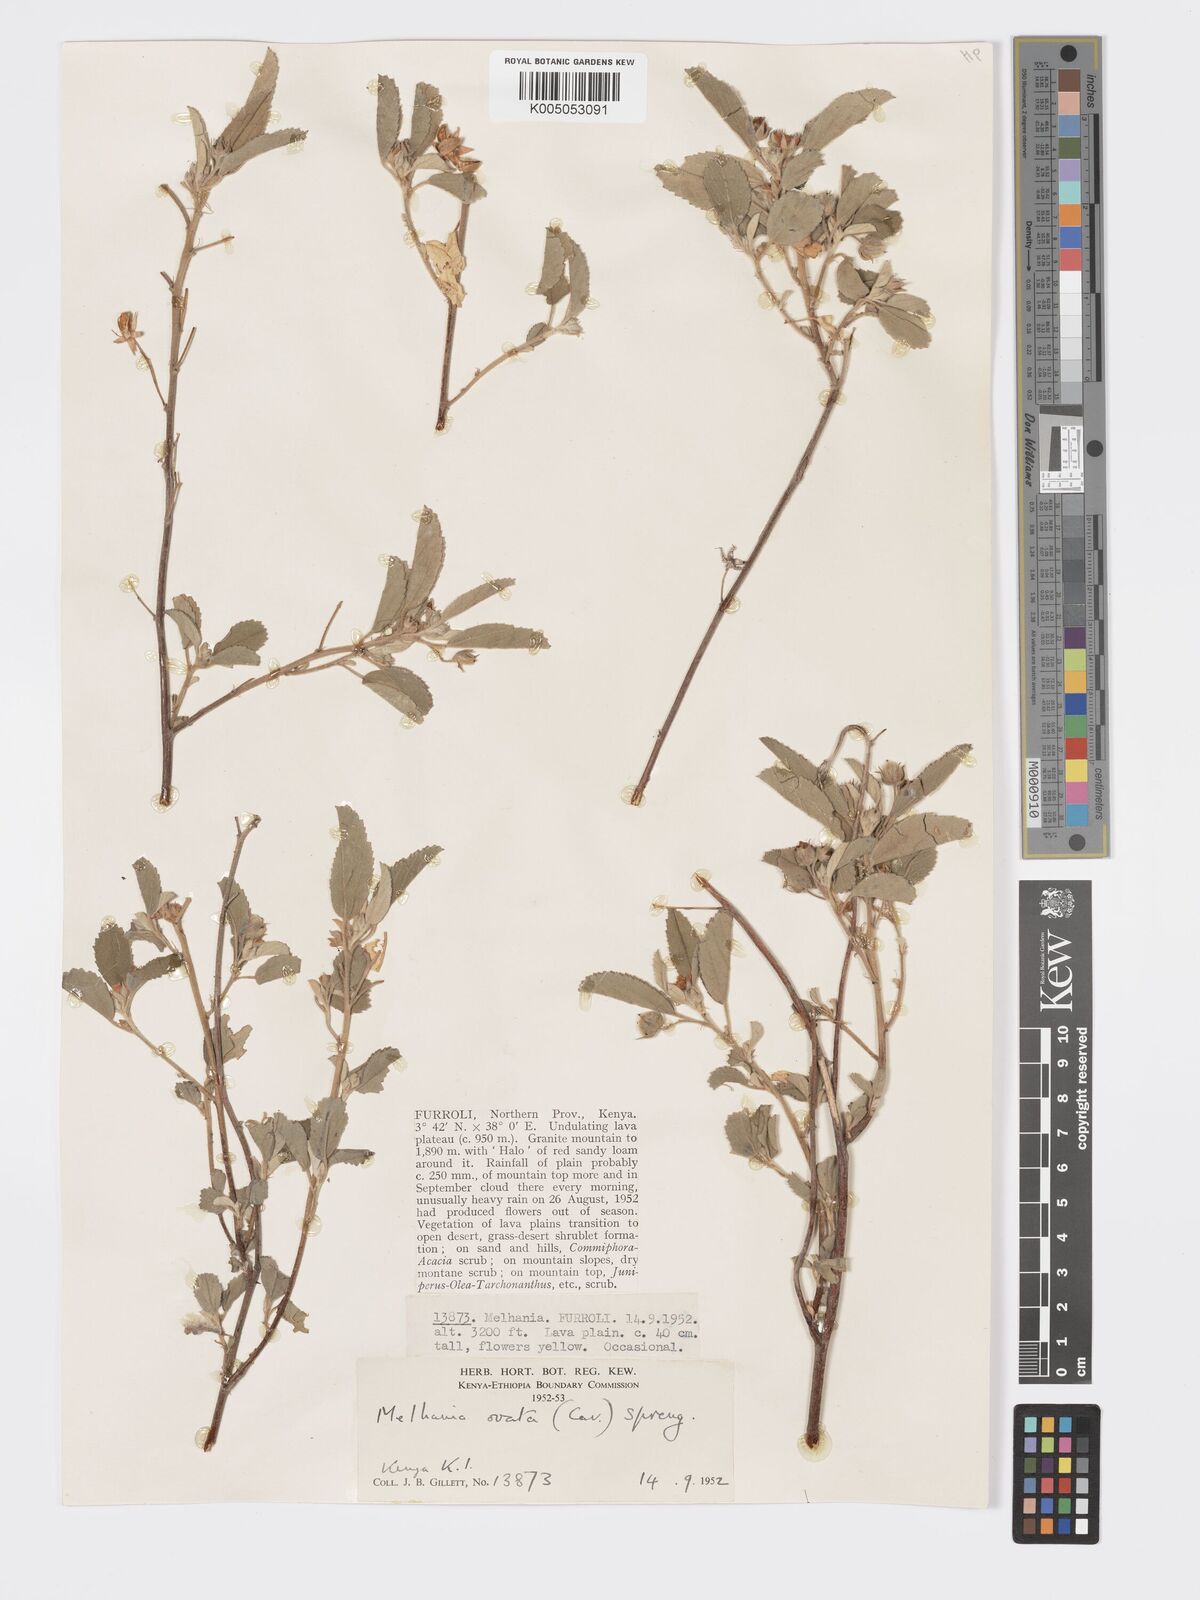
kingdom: Plantae
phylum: Tracheophyta
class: Magnoliopsida
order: Malvales
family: Malvaceae
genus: Melhania
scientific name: Melhania ovata
